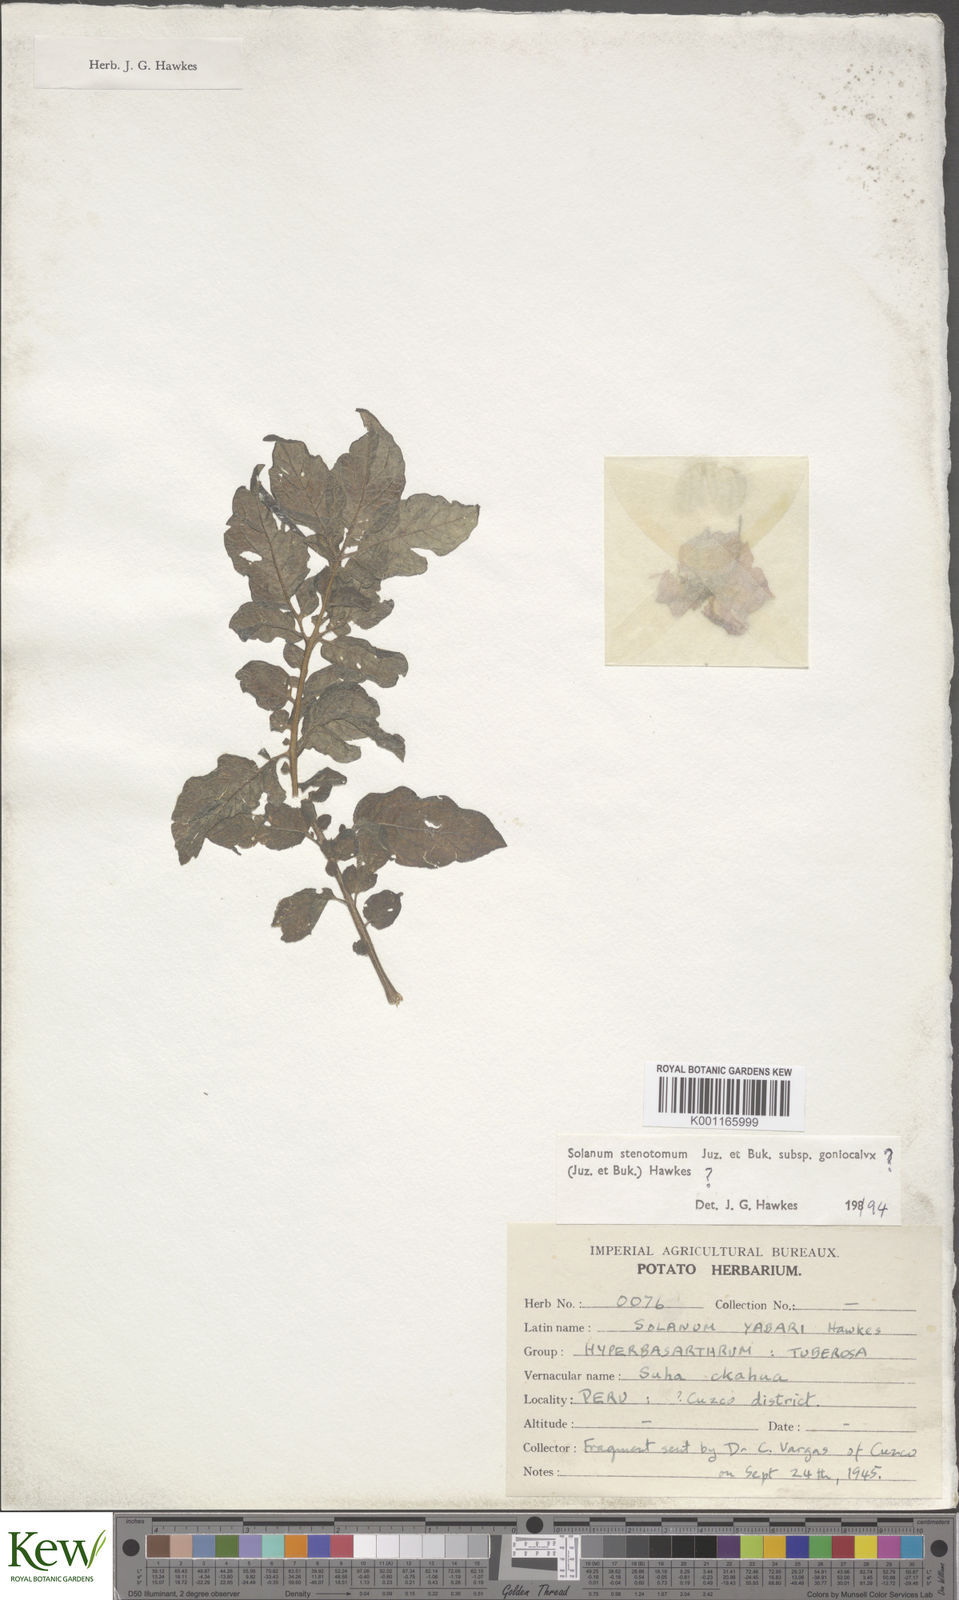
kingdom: Plantae
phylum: Tracheophyta
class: Magnoliopsida
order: Solanales
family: Solanaceae
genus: Solanum
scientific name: Solanum tuberosum
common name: Potato
